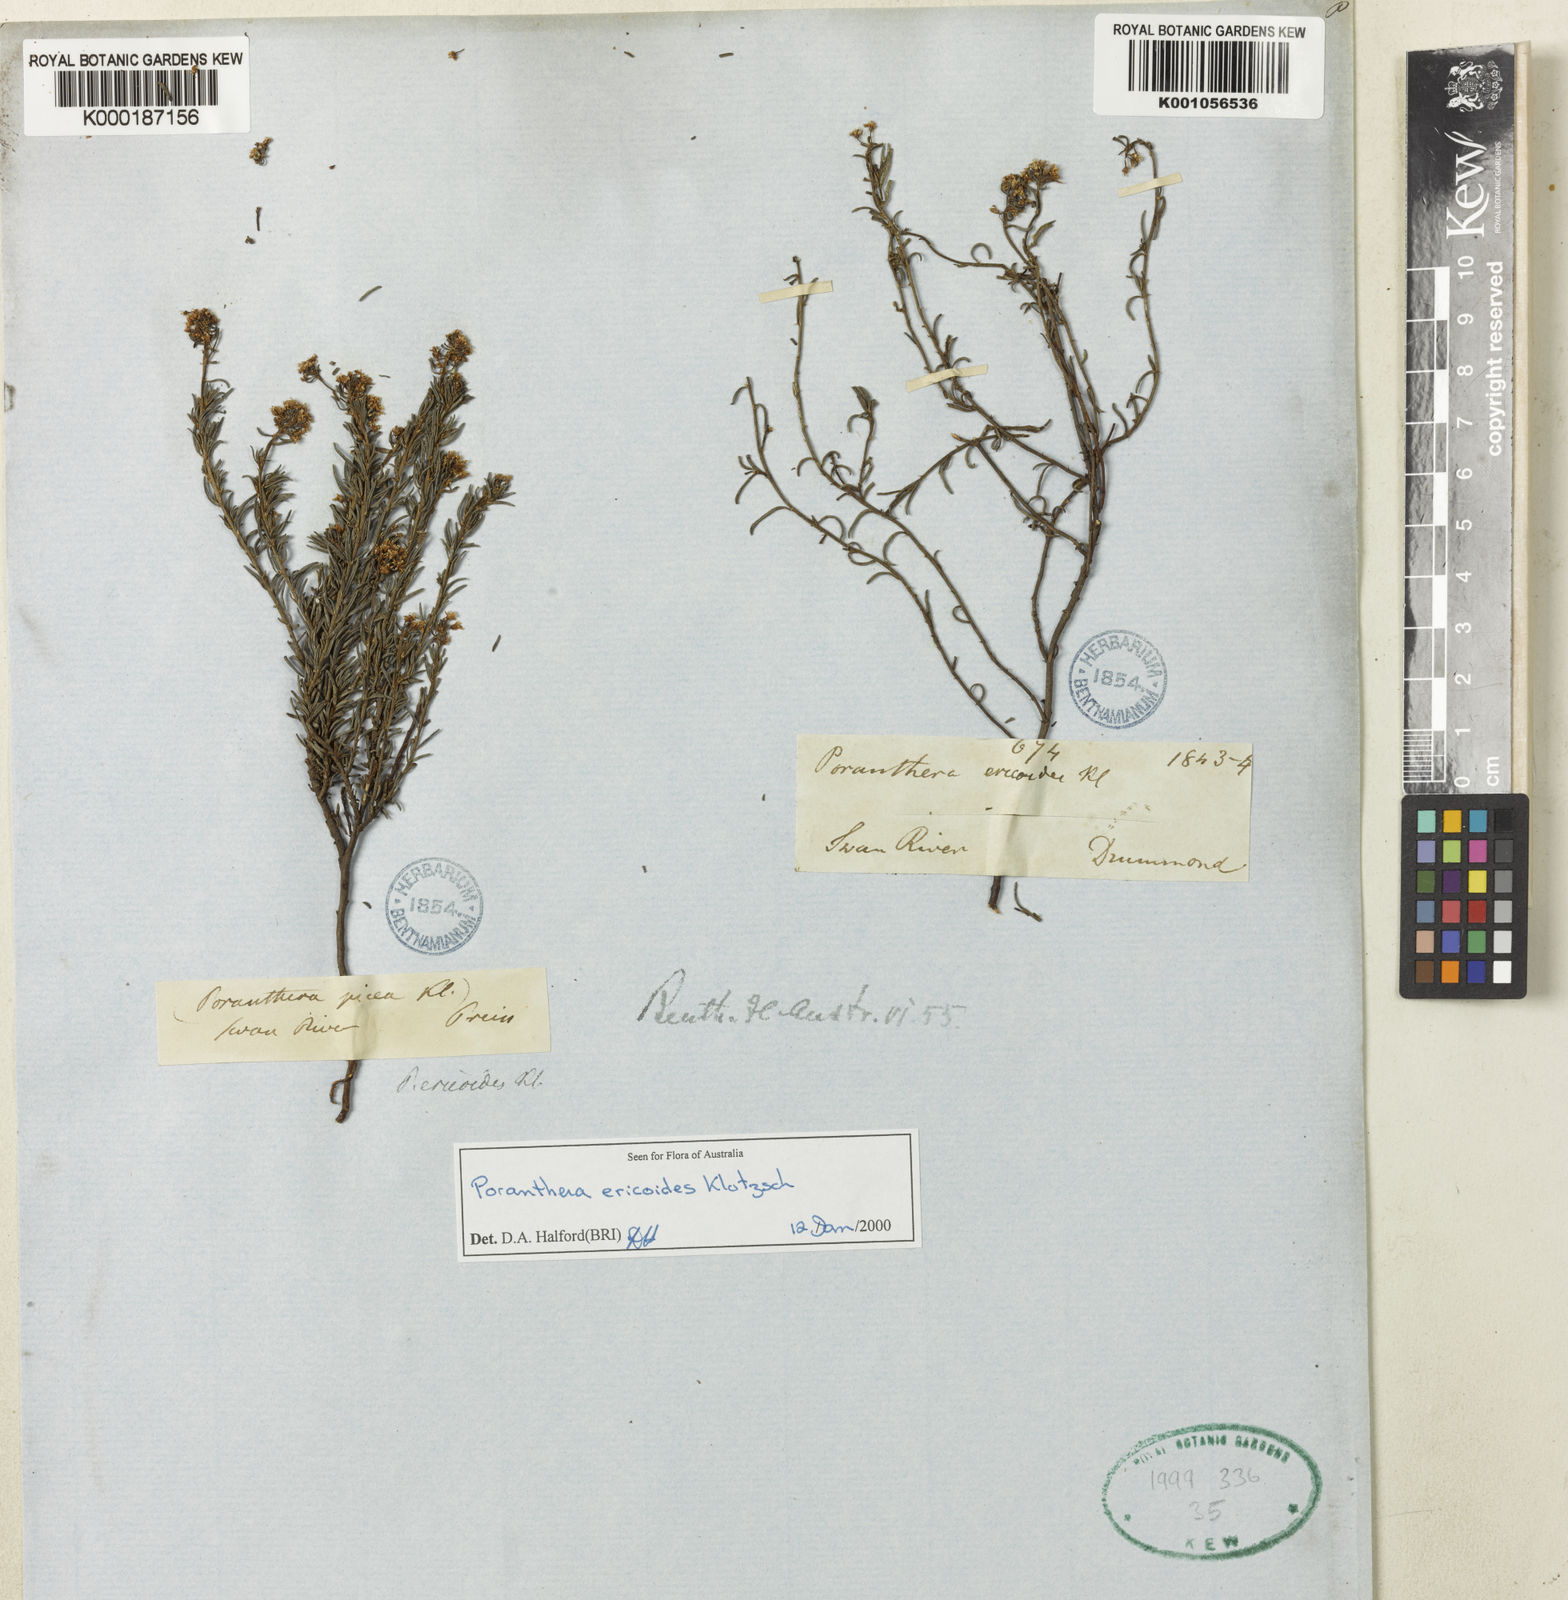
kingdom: Plantae
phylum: Tracheophyta
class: Magnoliopsida
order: Malpighiales
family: Phyllanthaceae
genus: Poranthera
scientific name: Poranthera ericoides
